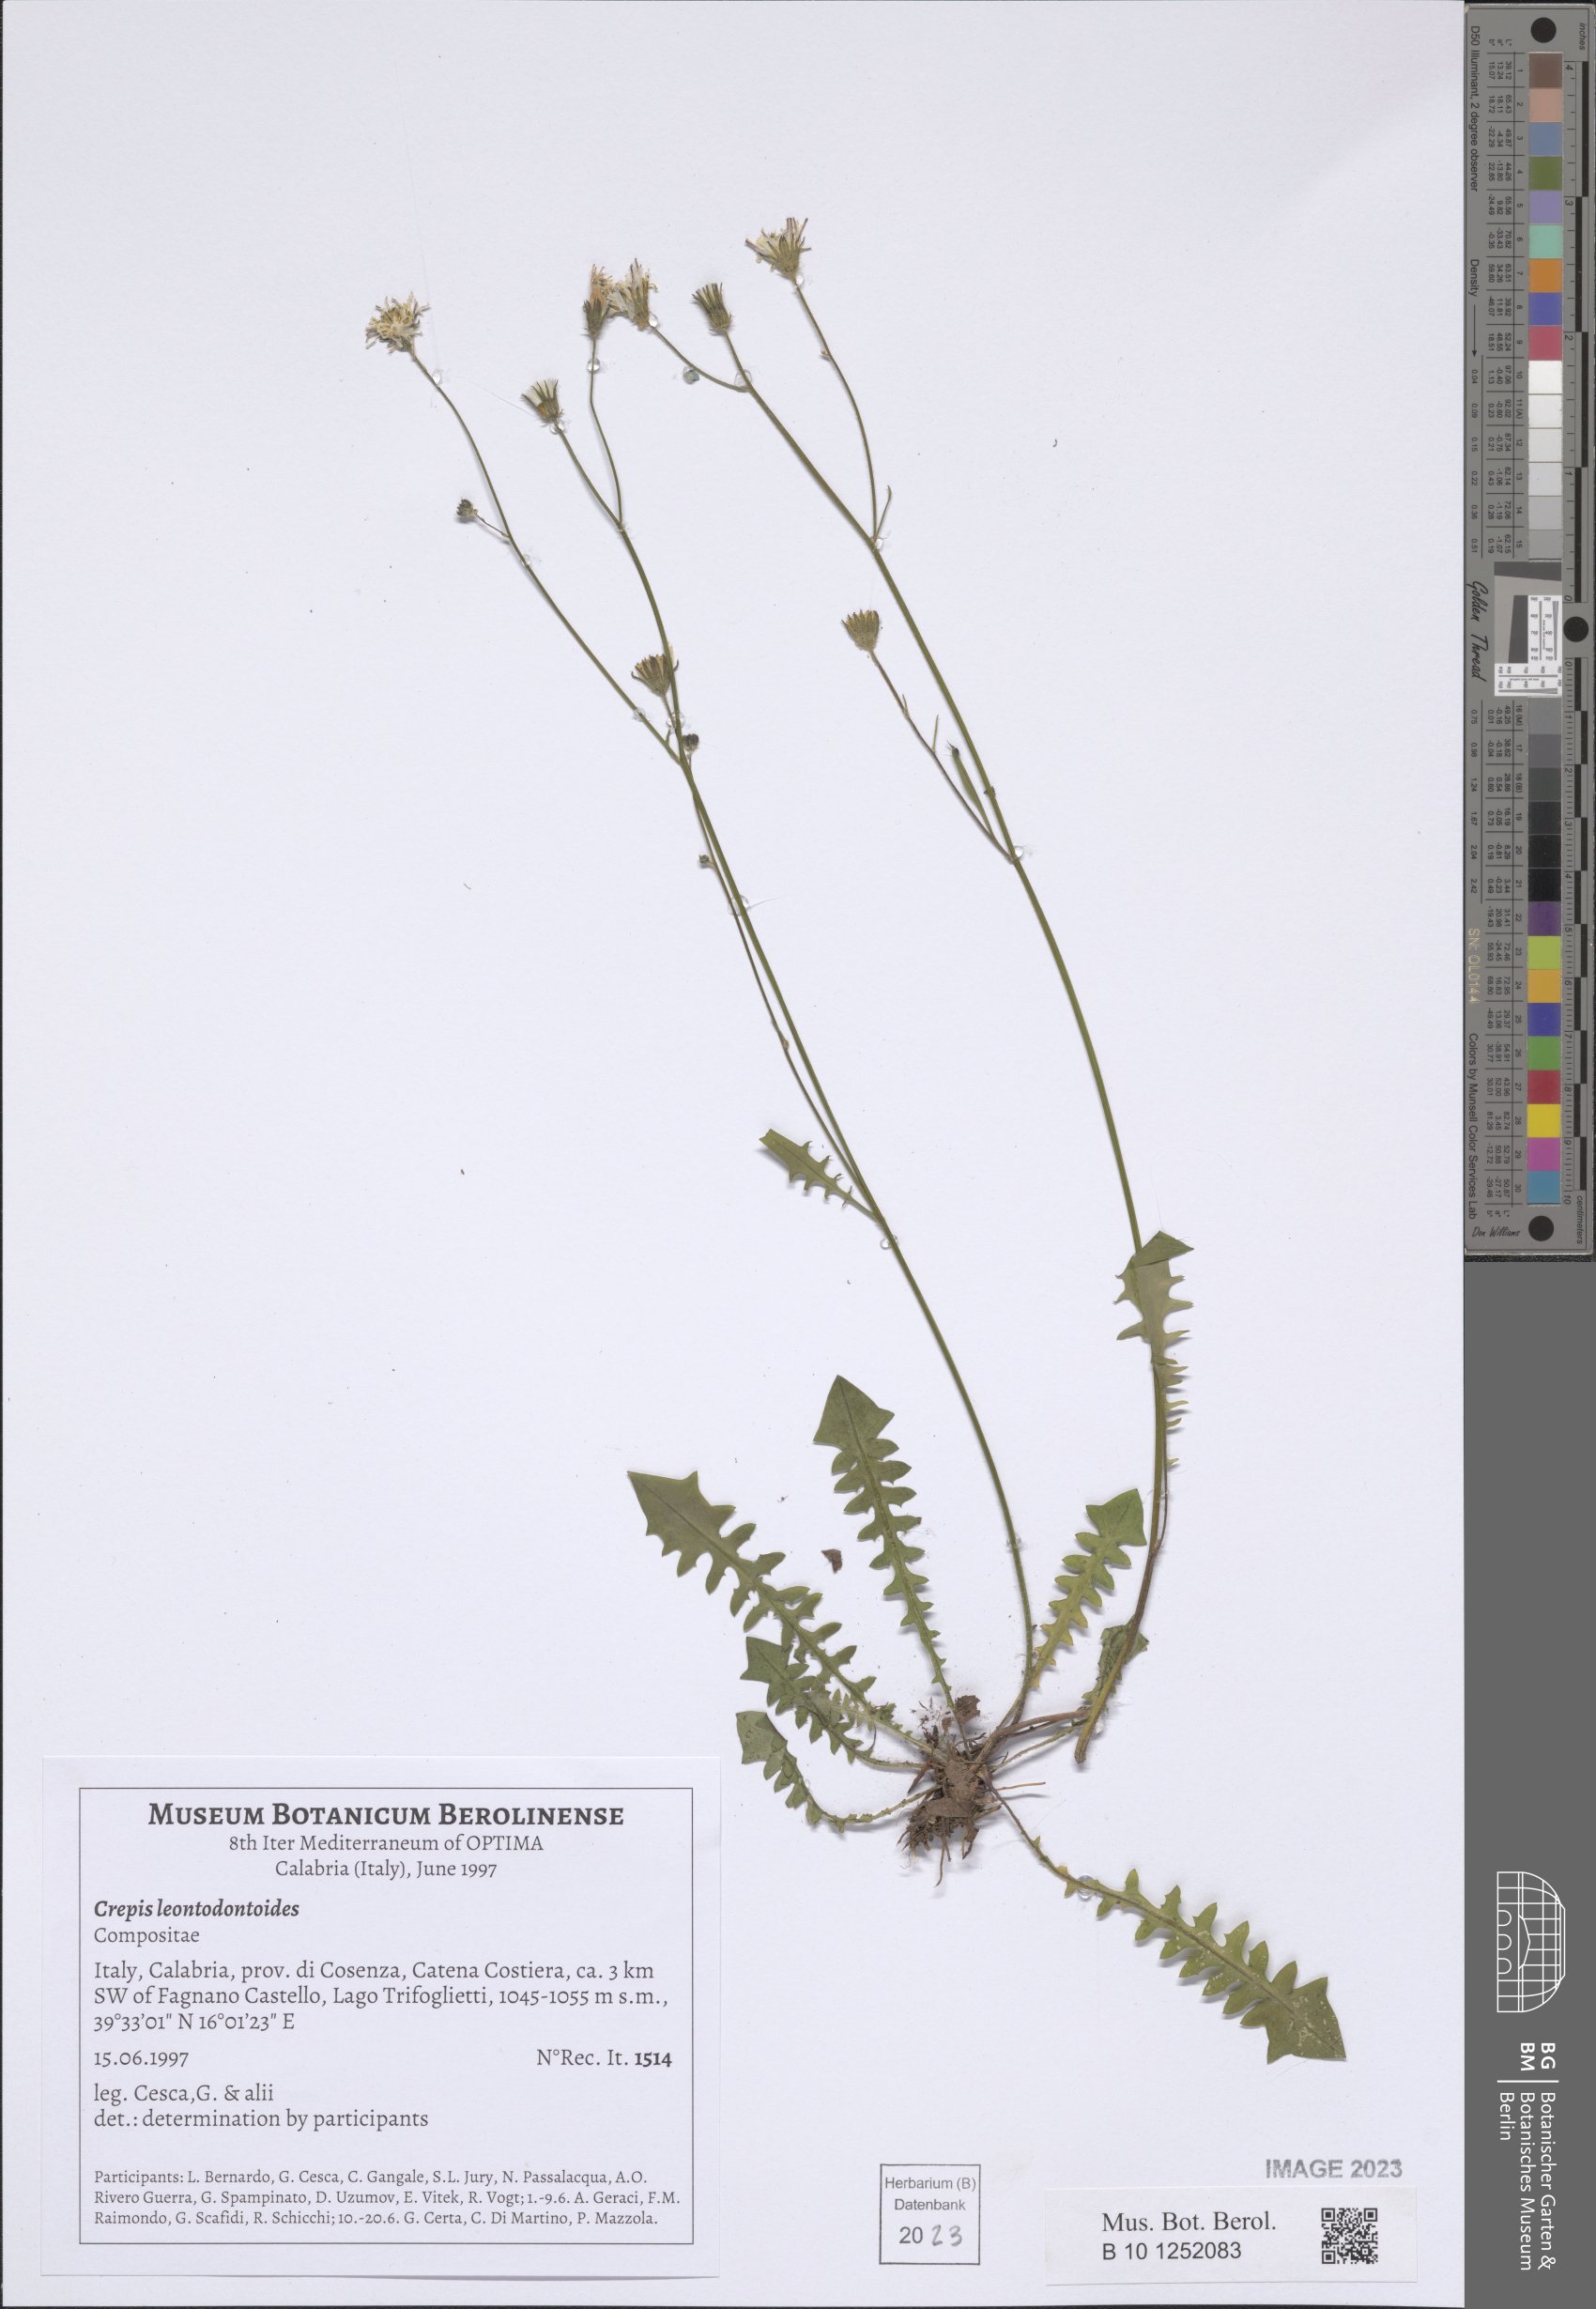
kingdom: Plantae
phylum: Tracheophyta
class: Magnoliopsida
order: Asterales
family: Asteraceae
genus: Crepis
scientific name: Crepis leontodontoides
